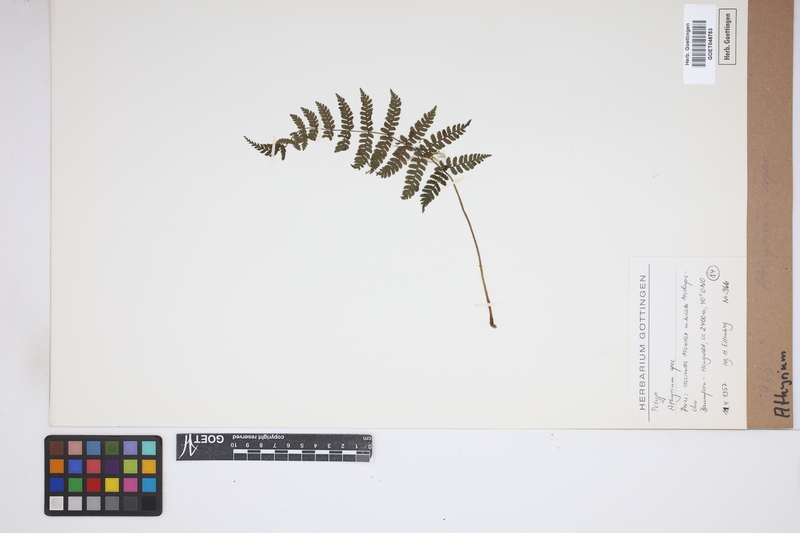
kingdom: Plantae
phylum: Tracheophyta
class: Polypodiopsida
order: Polypodiales
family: Athyriaceae
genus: Athyrium
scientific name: Athyrium
